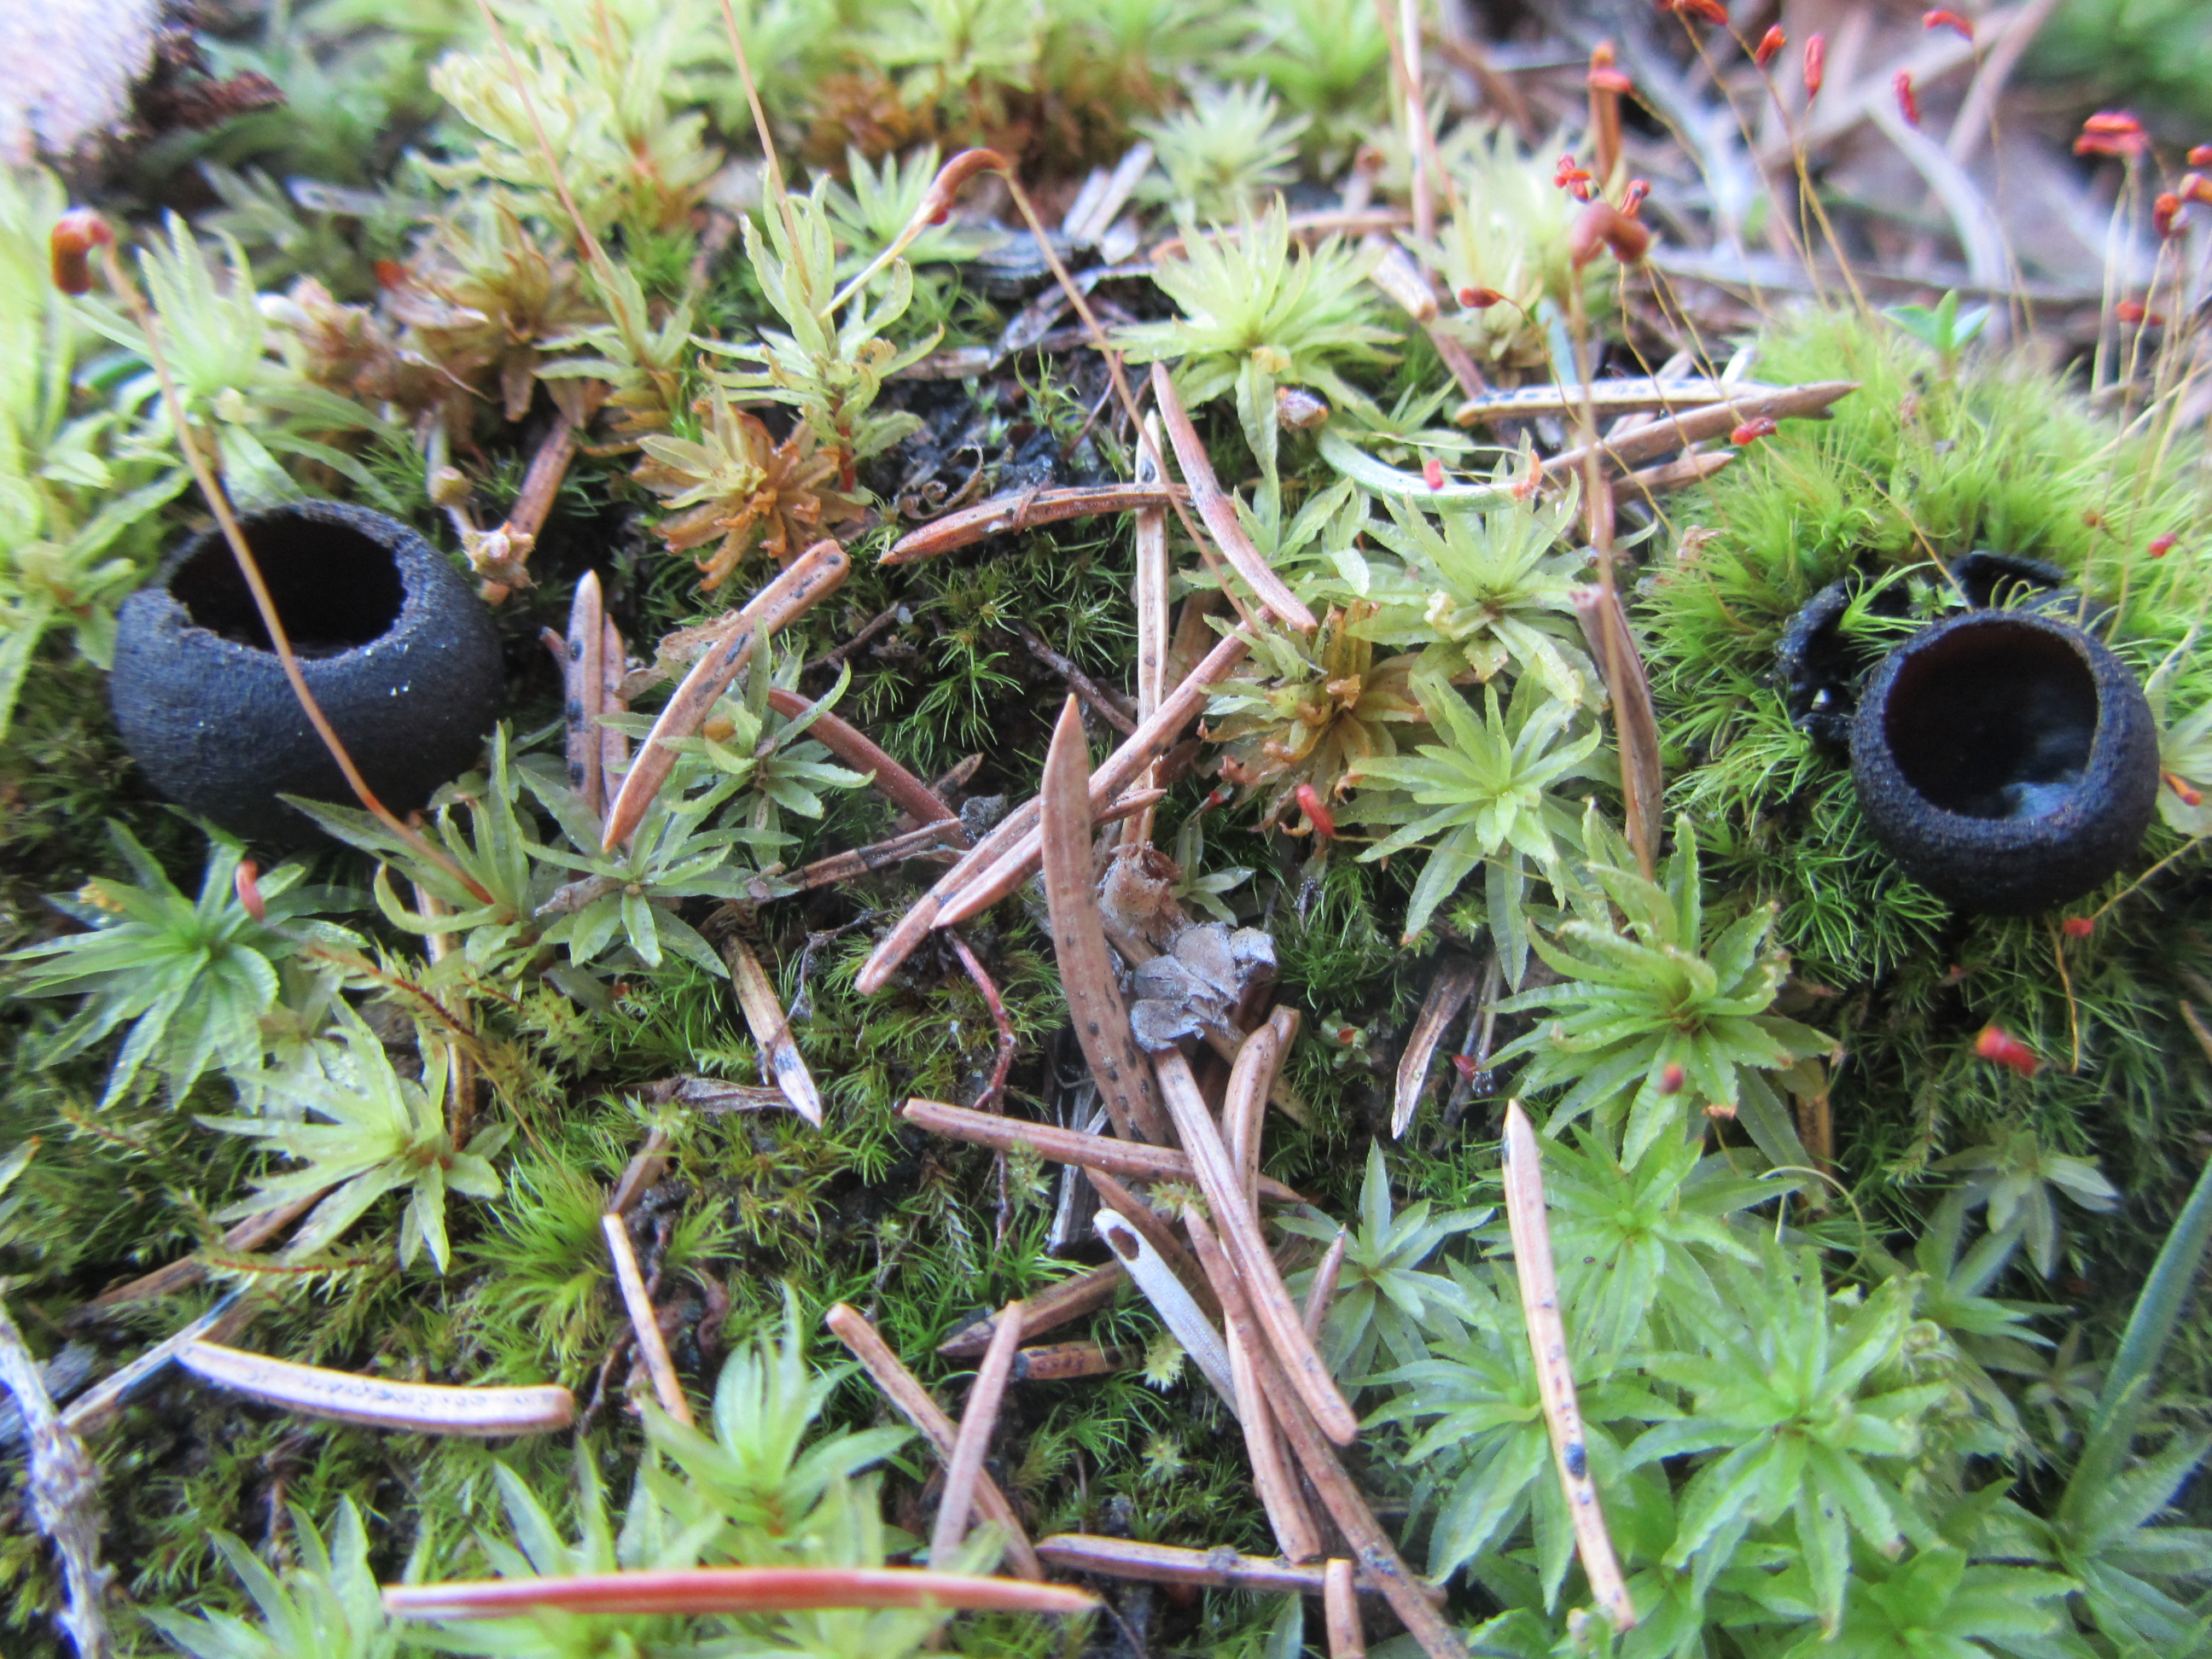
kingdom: Fungi
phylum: Ascomycota
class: Pezizomycetes
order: Pezizales
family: Sarcosomataceae
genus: Pseudoplectania
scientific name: Pseudoplectania nigrella
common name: Ebony cup
